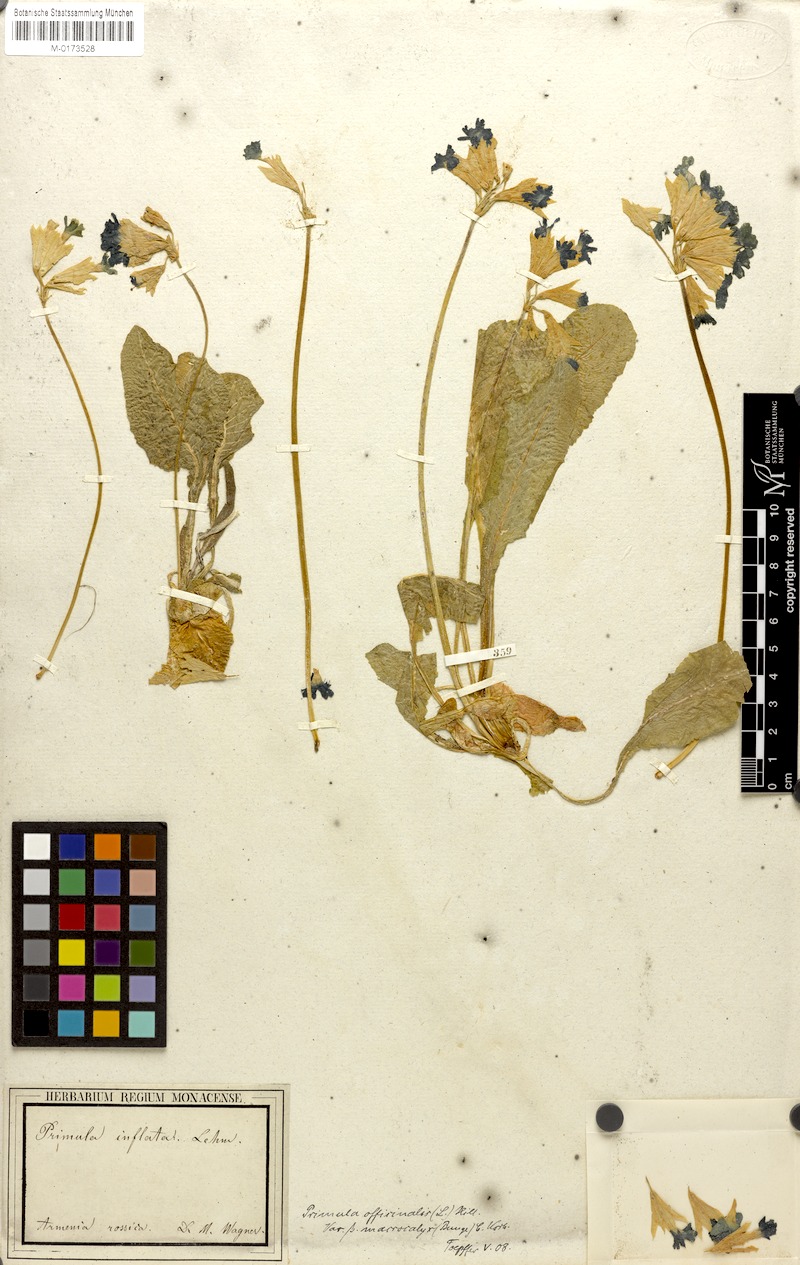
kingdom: Plantae
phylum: Tracheophyta
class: Magnoliopsida
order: Ericales
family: Primulaceae
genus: Primula
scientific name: Primula veris
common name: Cowslip
